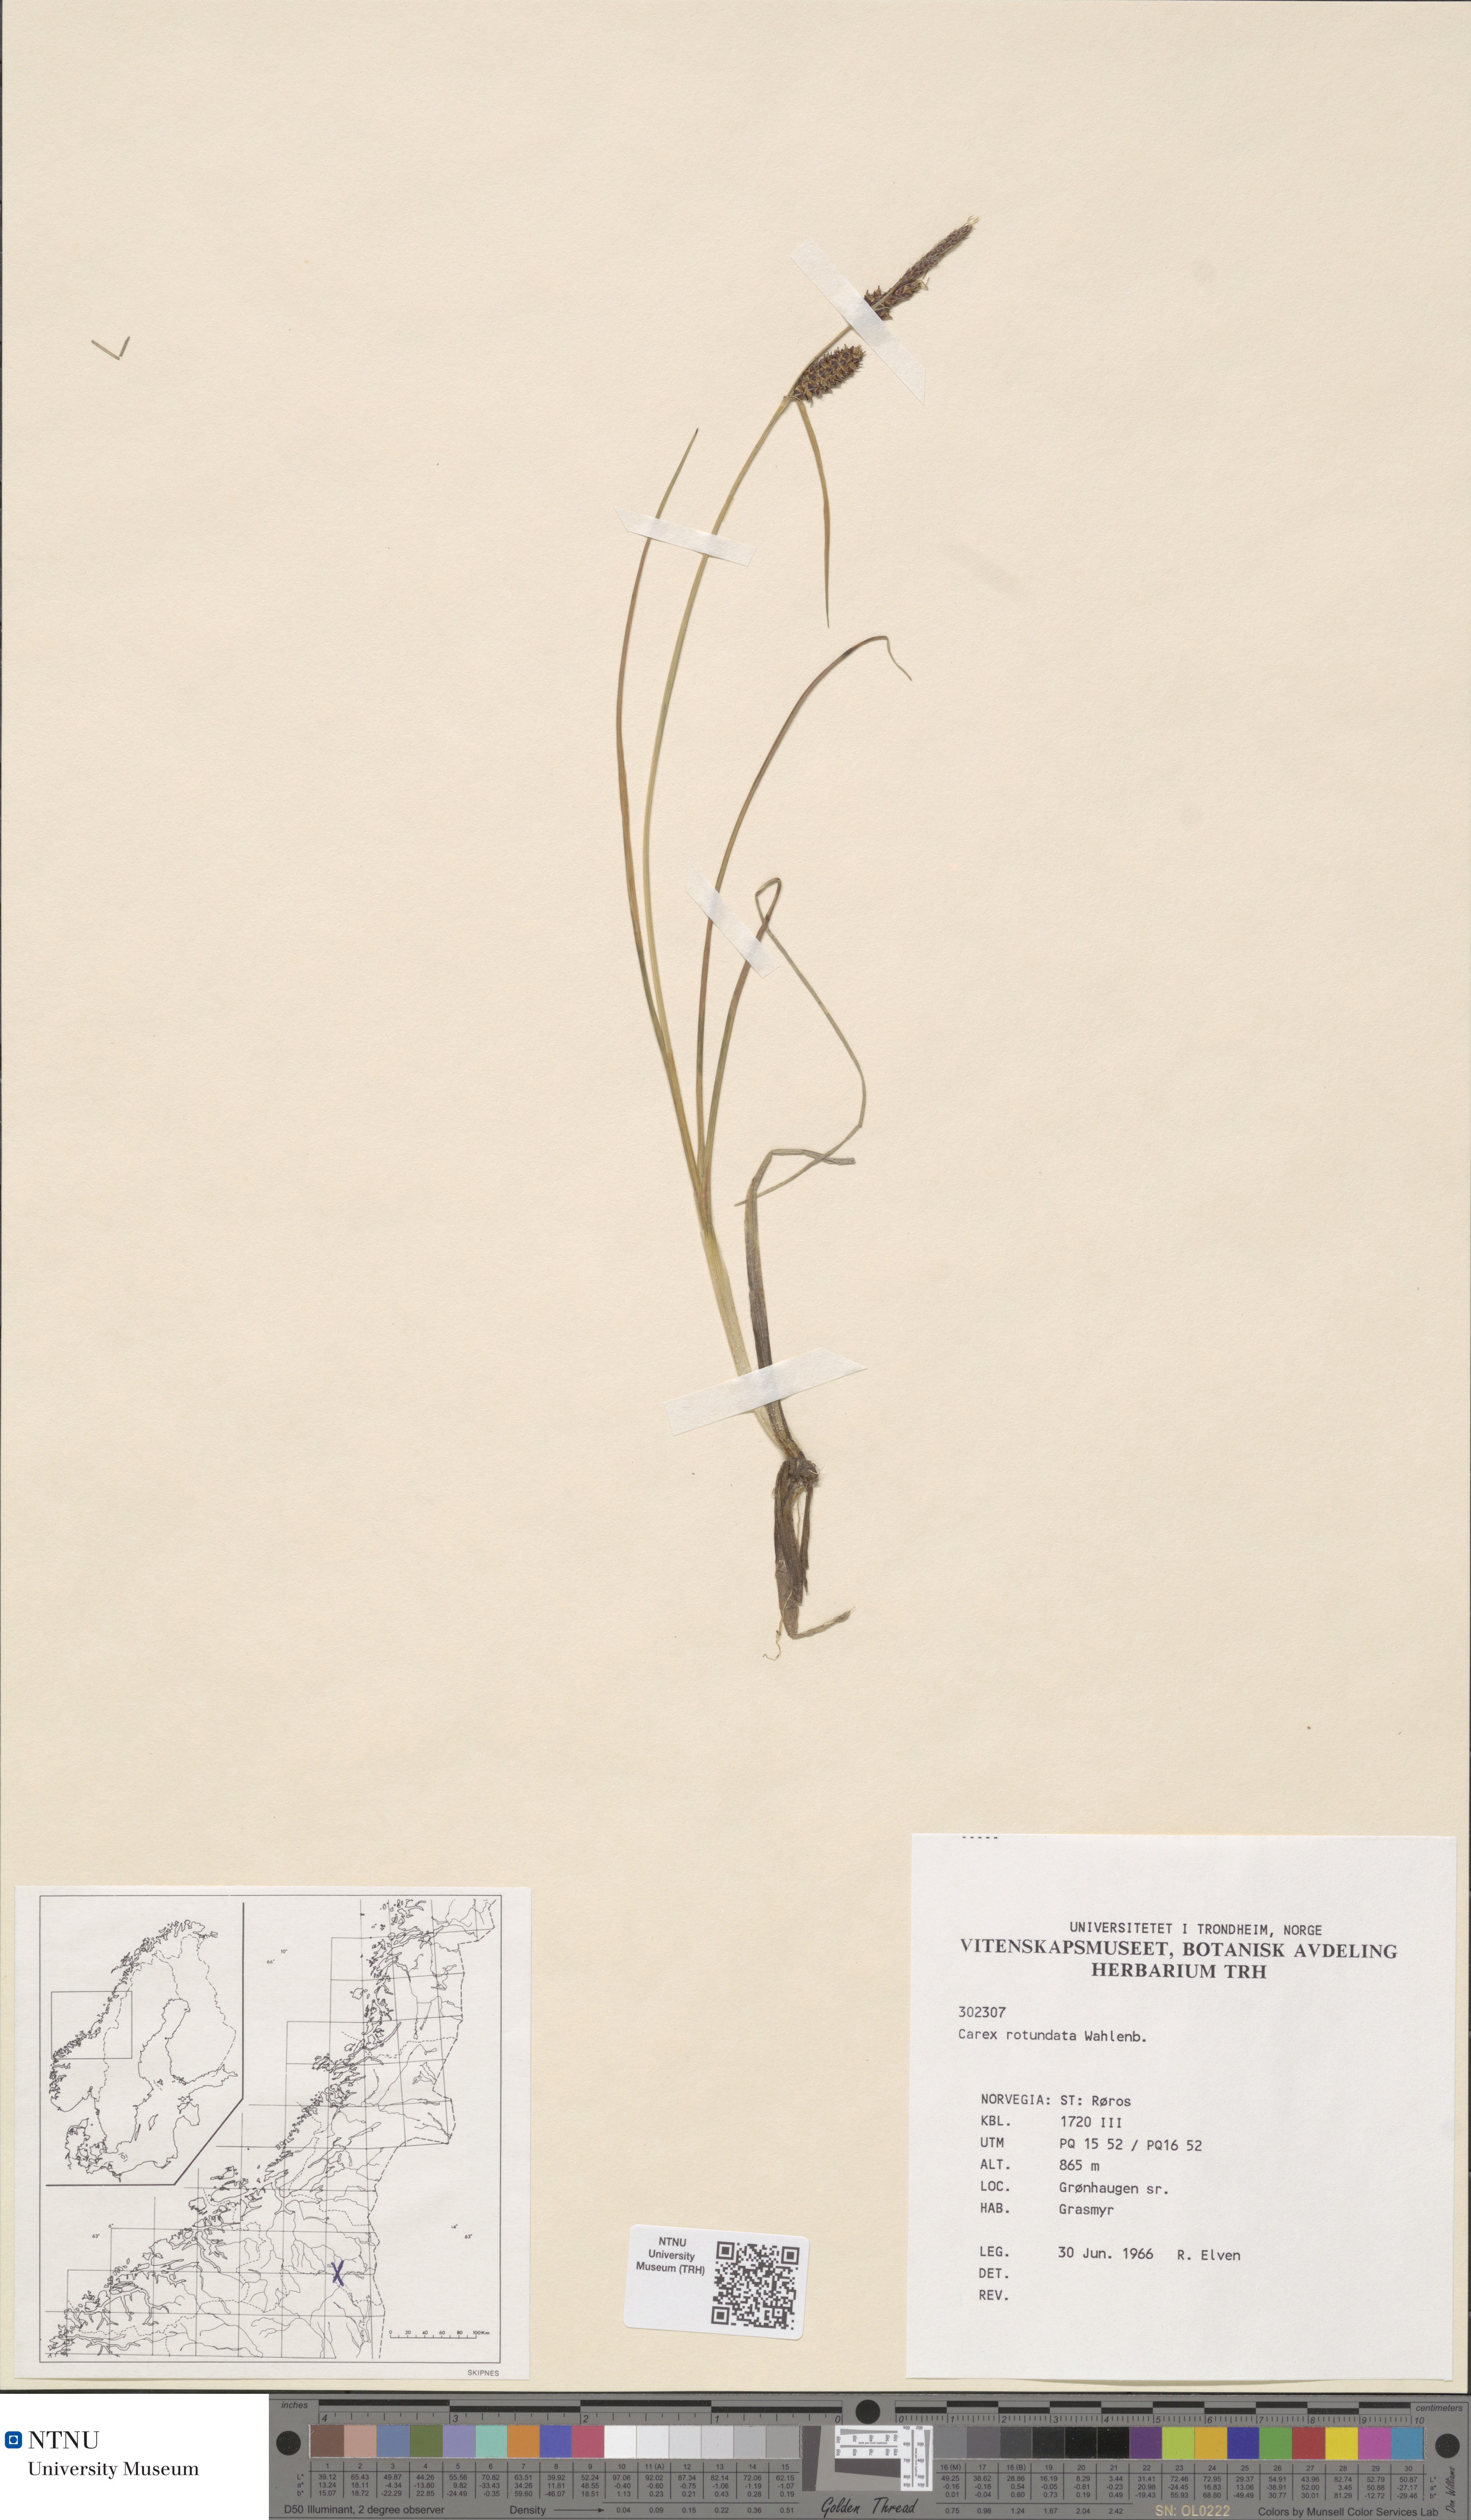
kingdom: Plantae
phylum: Tracheophyta
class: Liliopsida
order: Poales
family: Cyperaceae
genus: Carex
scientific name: Carex rotundata
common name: Round-fruited sedge
